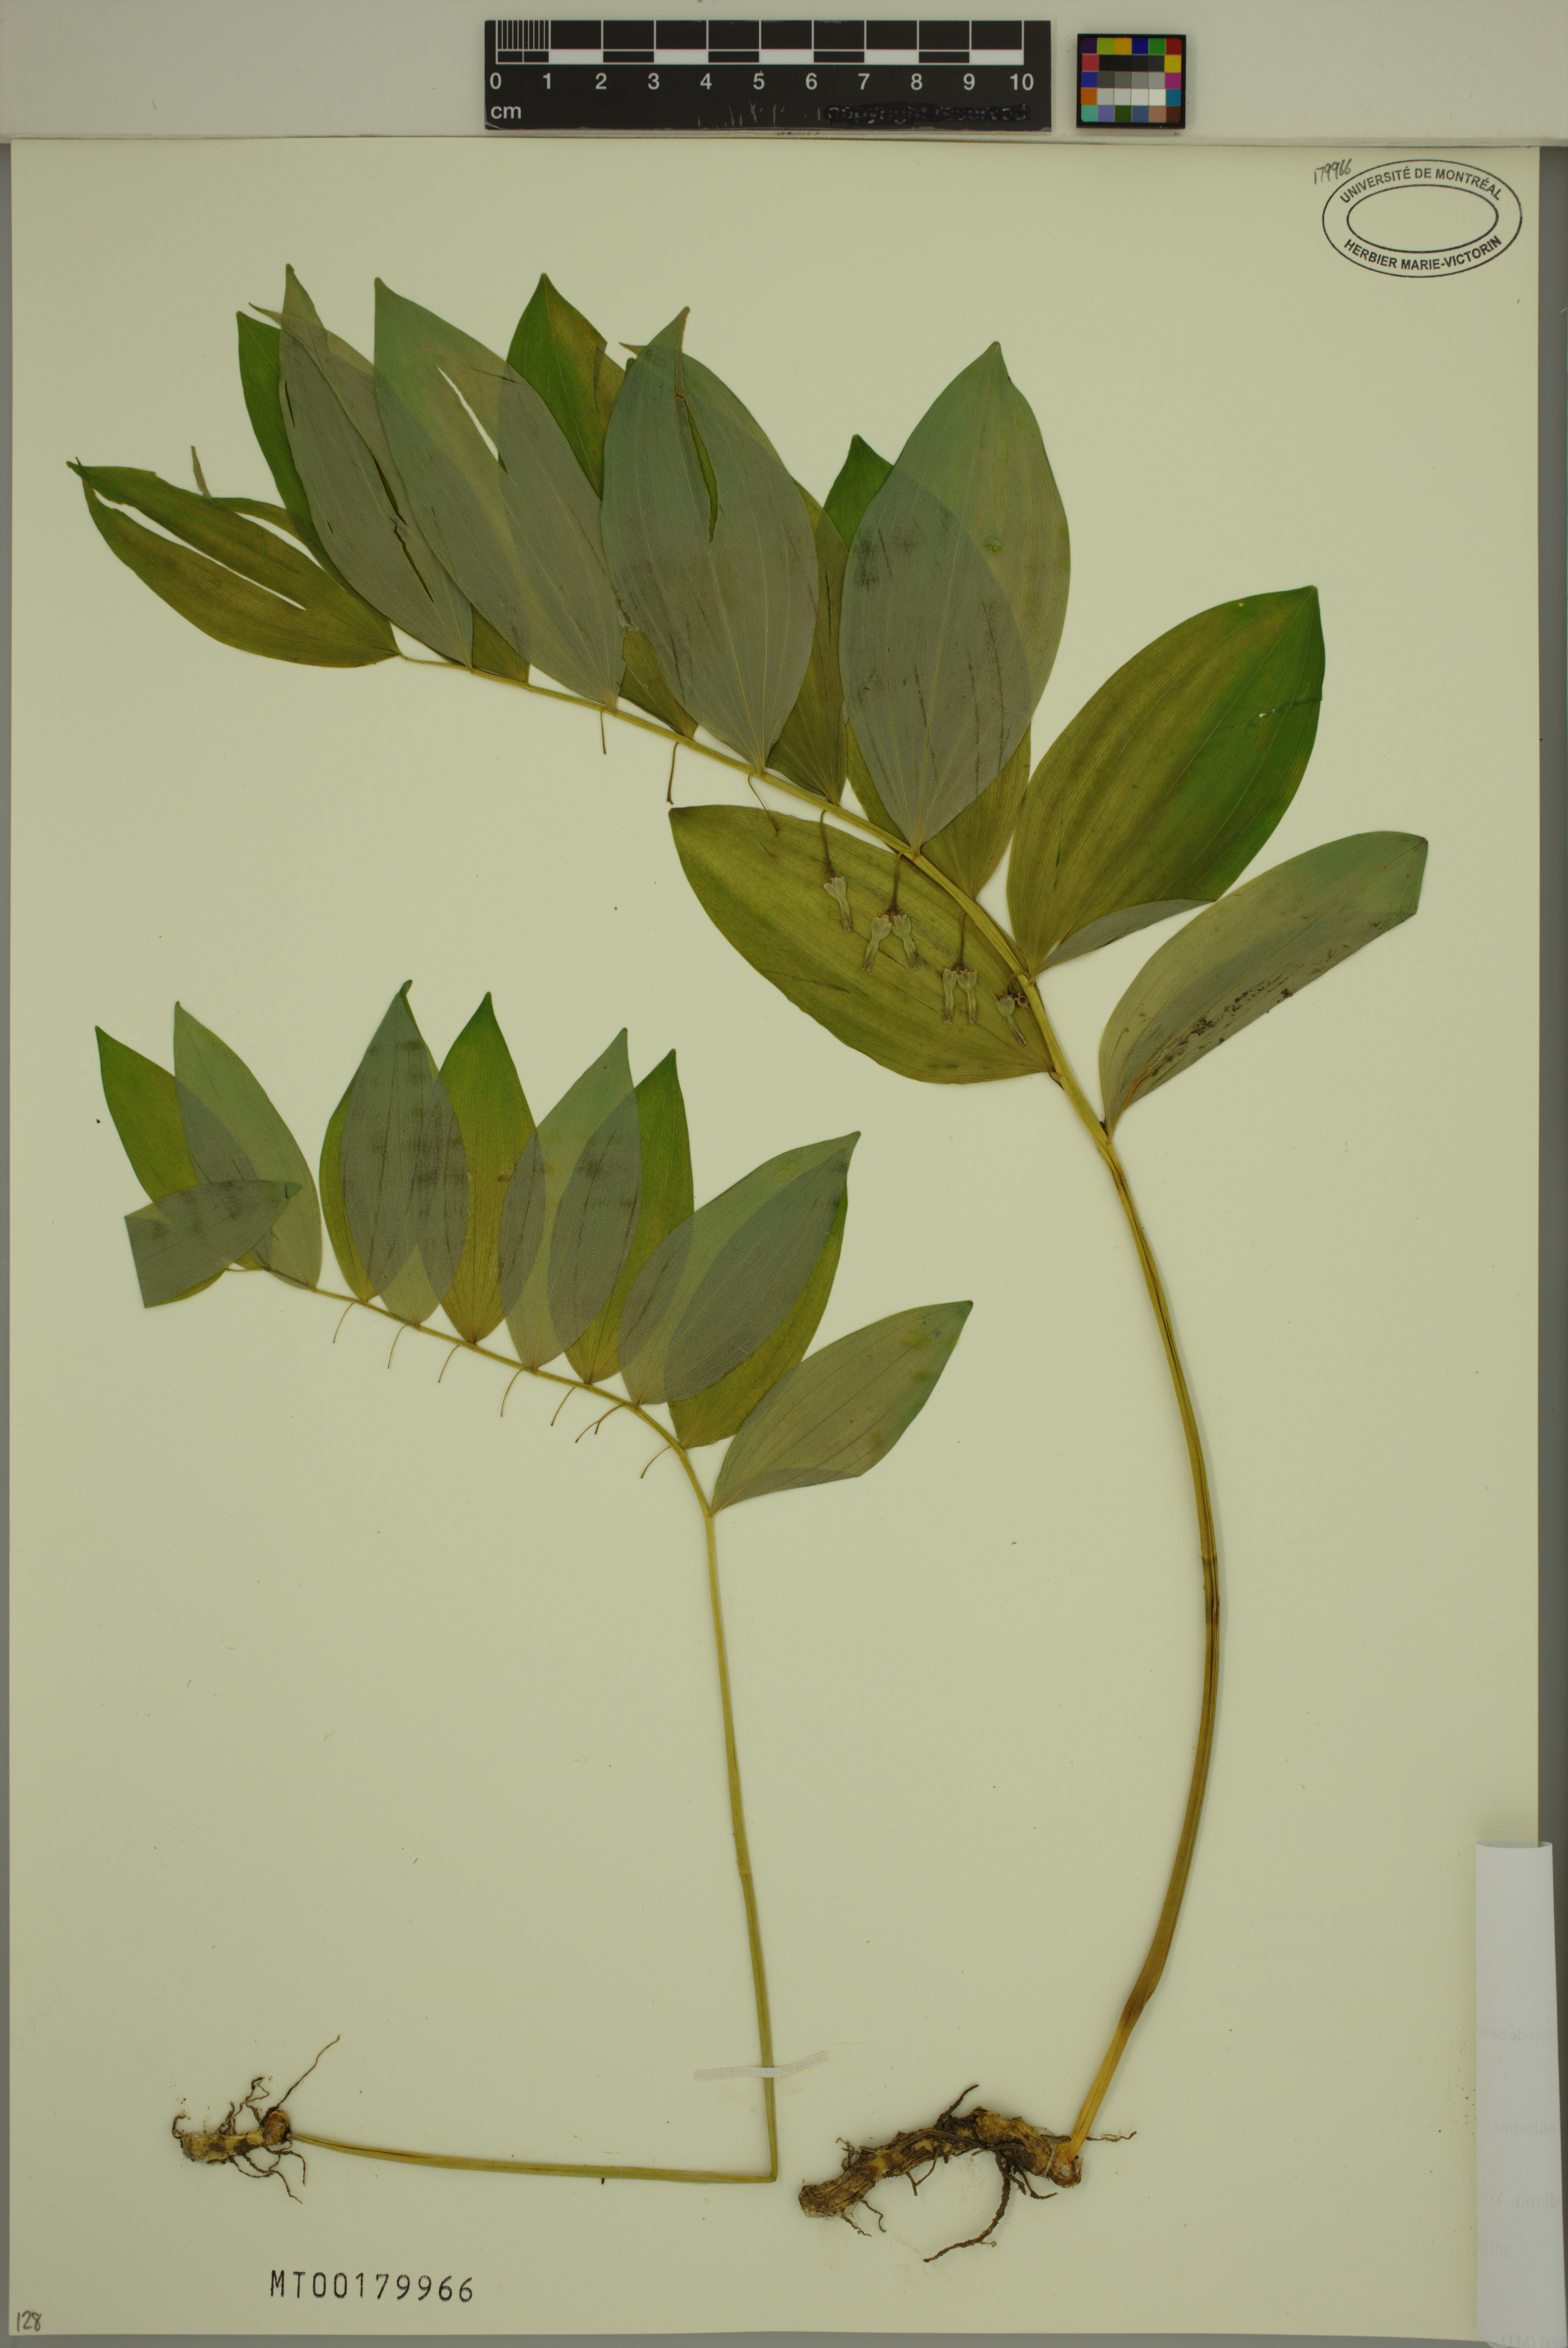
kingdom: Plantae
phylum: Tracheophyta
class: Liliopsida
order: Asparagales
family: Asparagaceae
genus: Polygonatum
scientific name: Polygonatum pubescens
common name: Downy solomon's seal
